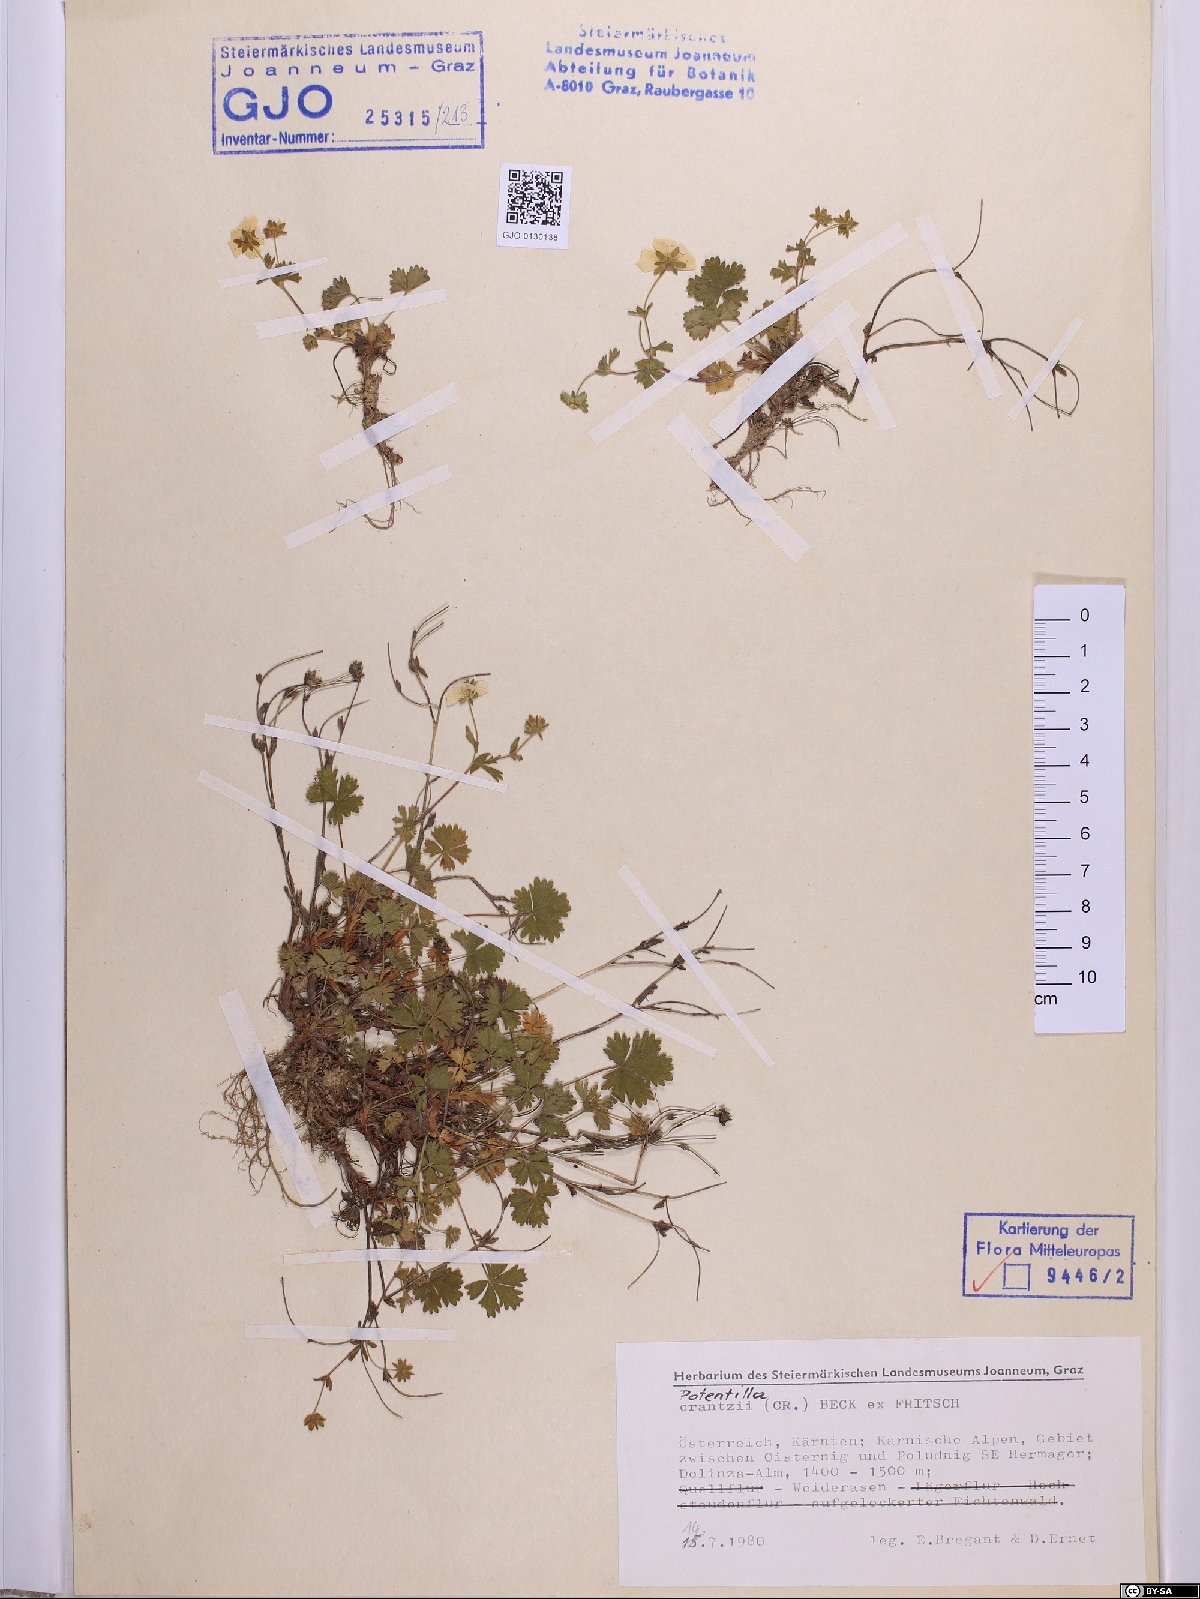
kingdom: Plantae
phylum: Tracheophyta
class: Magnoliopsida
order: Rosales
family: Rosaceae
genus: Potentilla
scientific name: Potentilla crantzii
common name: Alpine cinquefoil
